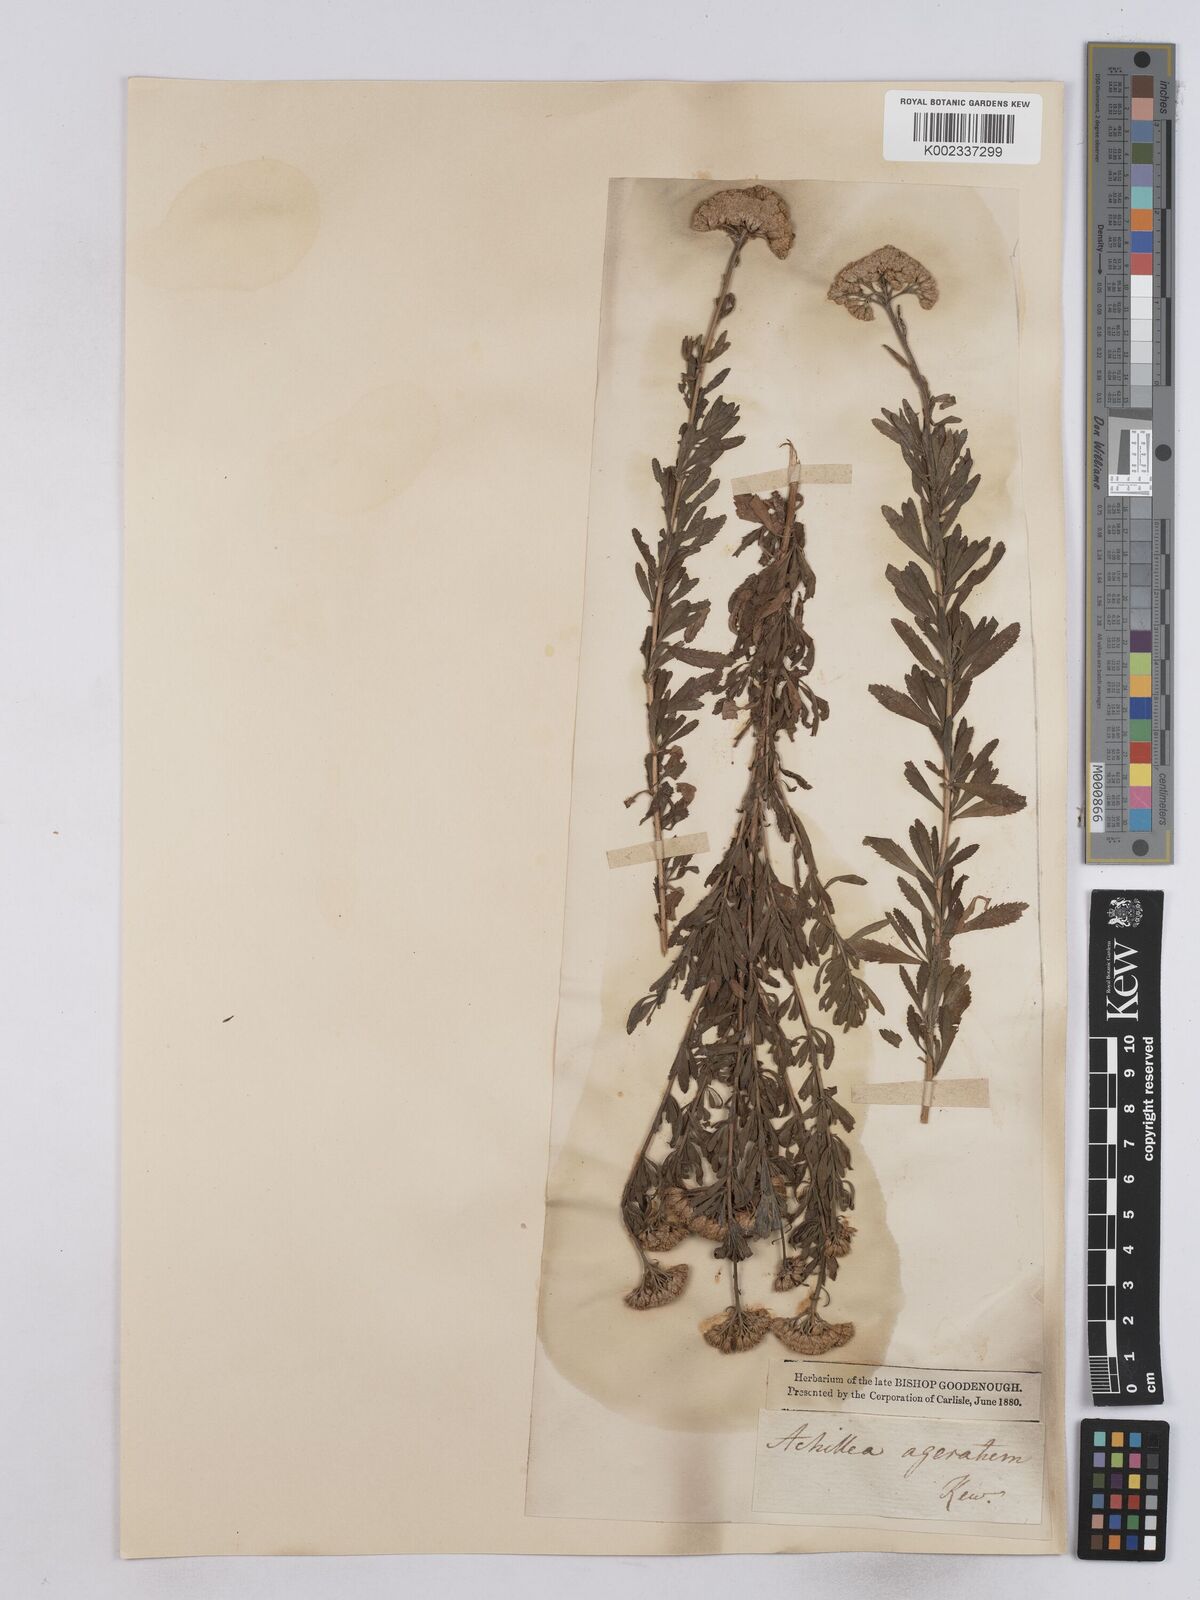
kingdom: Plantae
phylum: Tracheophyta
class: Magnoliopsida
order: Asterales
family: Asteraceae
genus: Achillea
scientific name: Achillea ageratum
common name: Sweet-nancy
